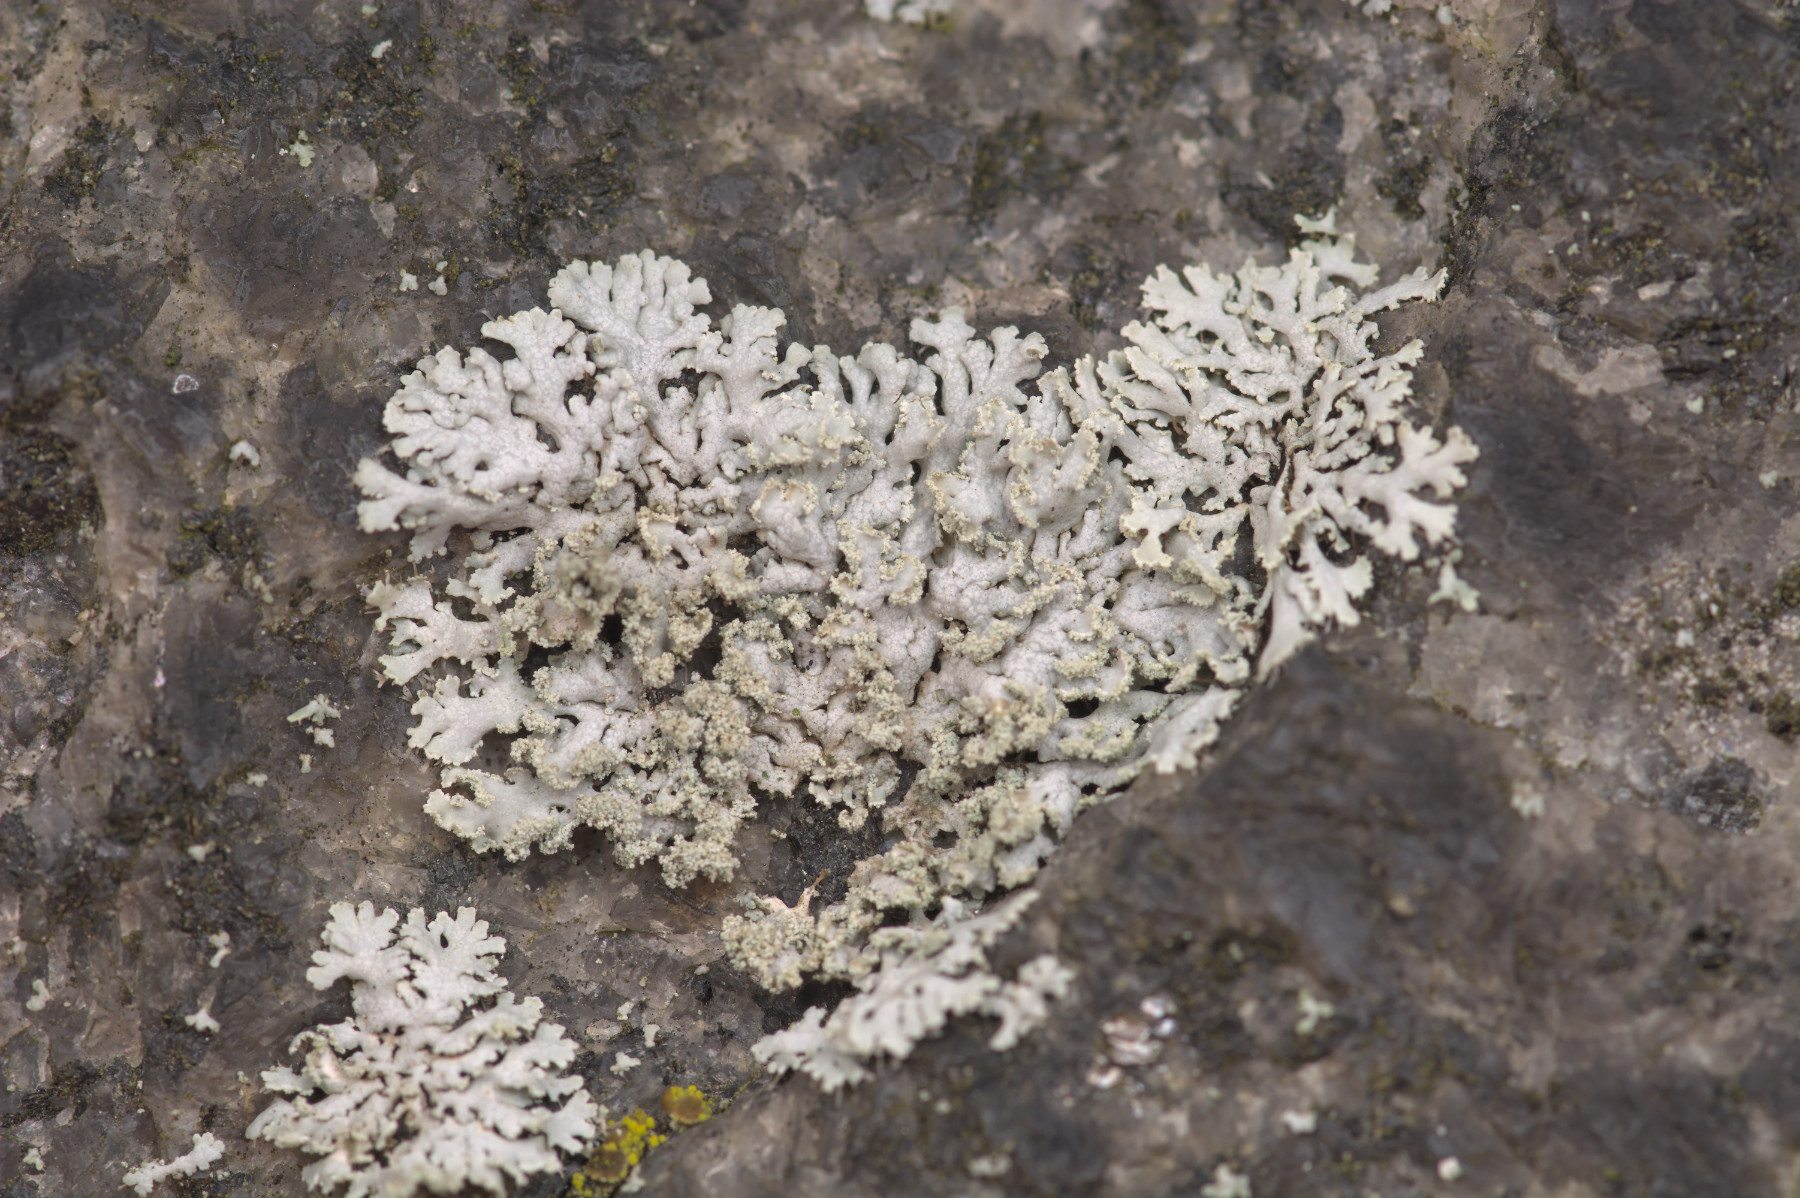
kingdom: Fungi
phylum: Ascomycota
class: Lecanoromycetes
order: Caliciales
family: Physciaceae
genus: Physcia
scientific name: Physcia dubia
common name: fuglestens-rosetlav
